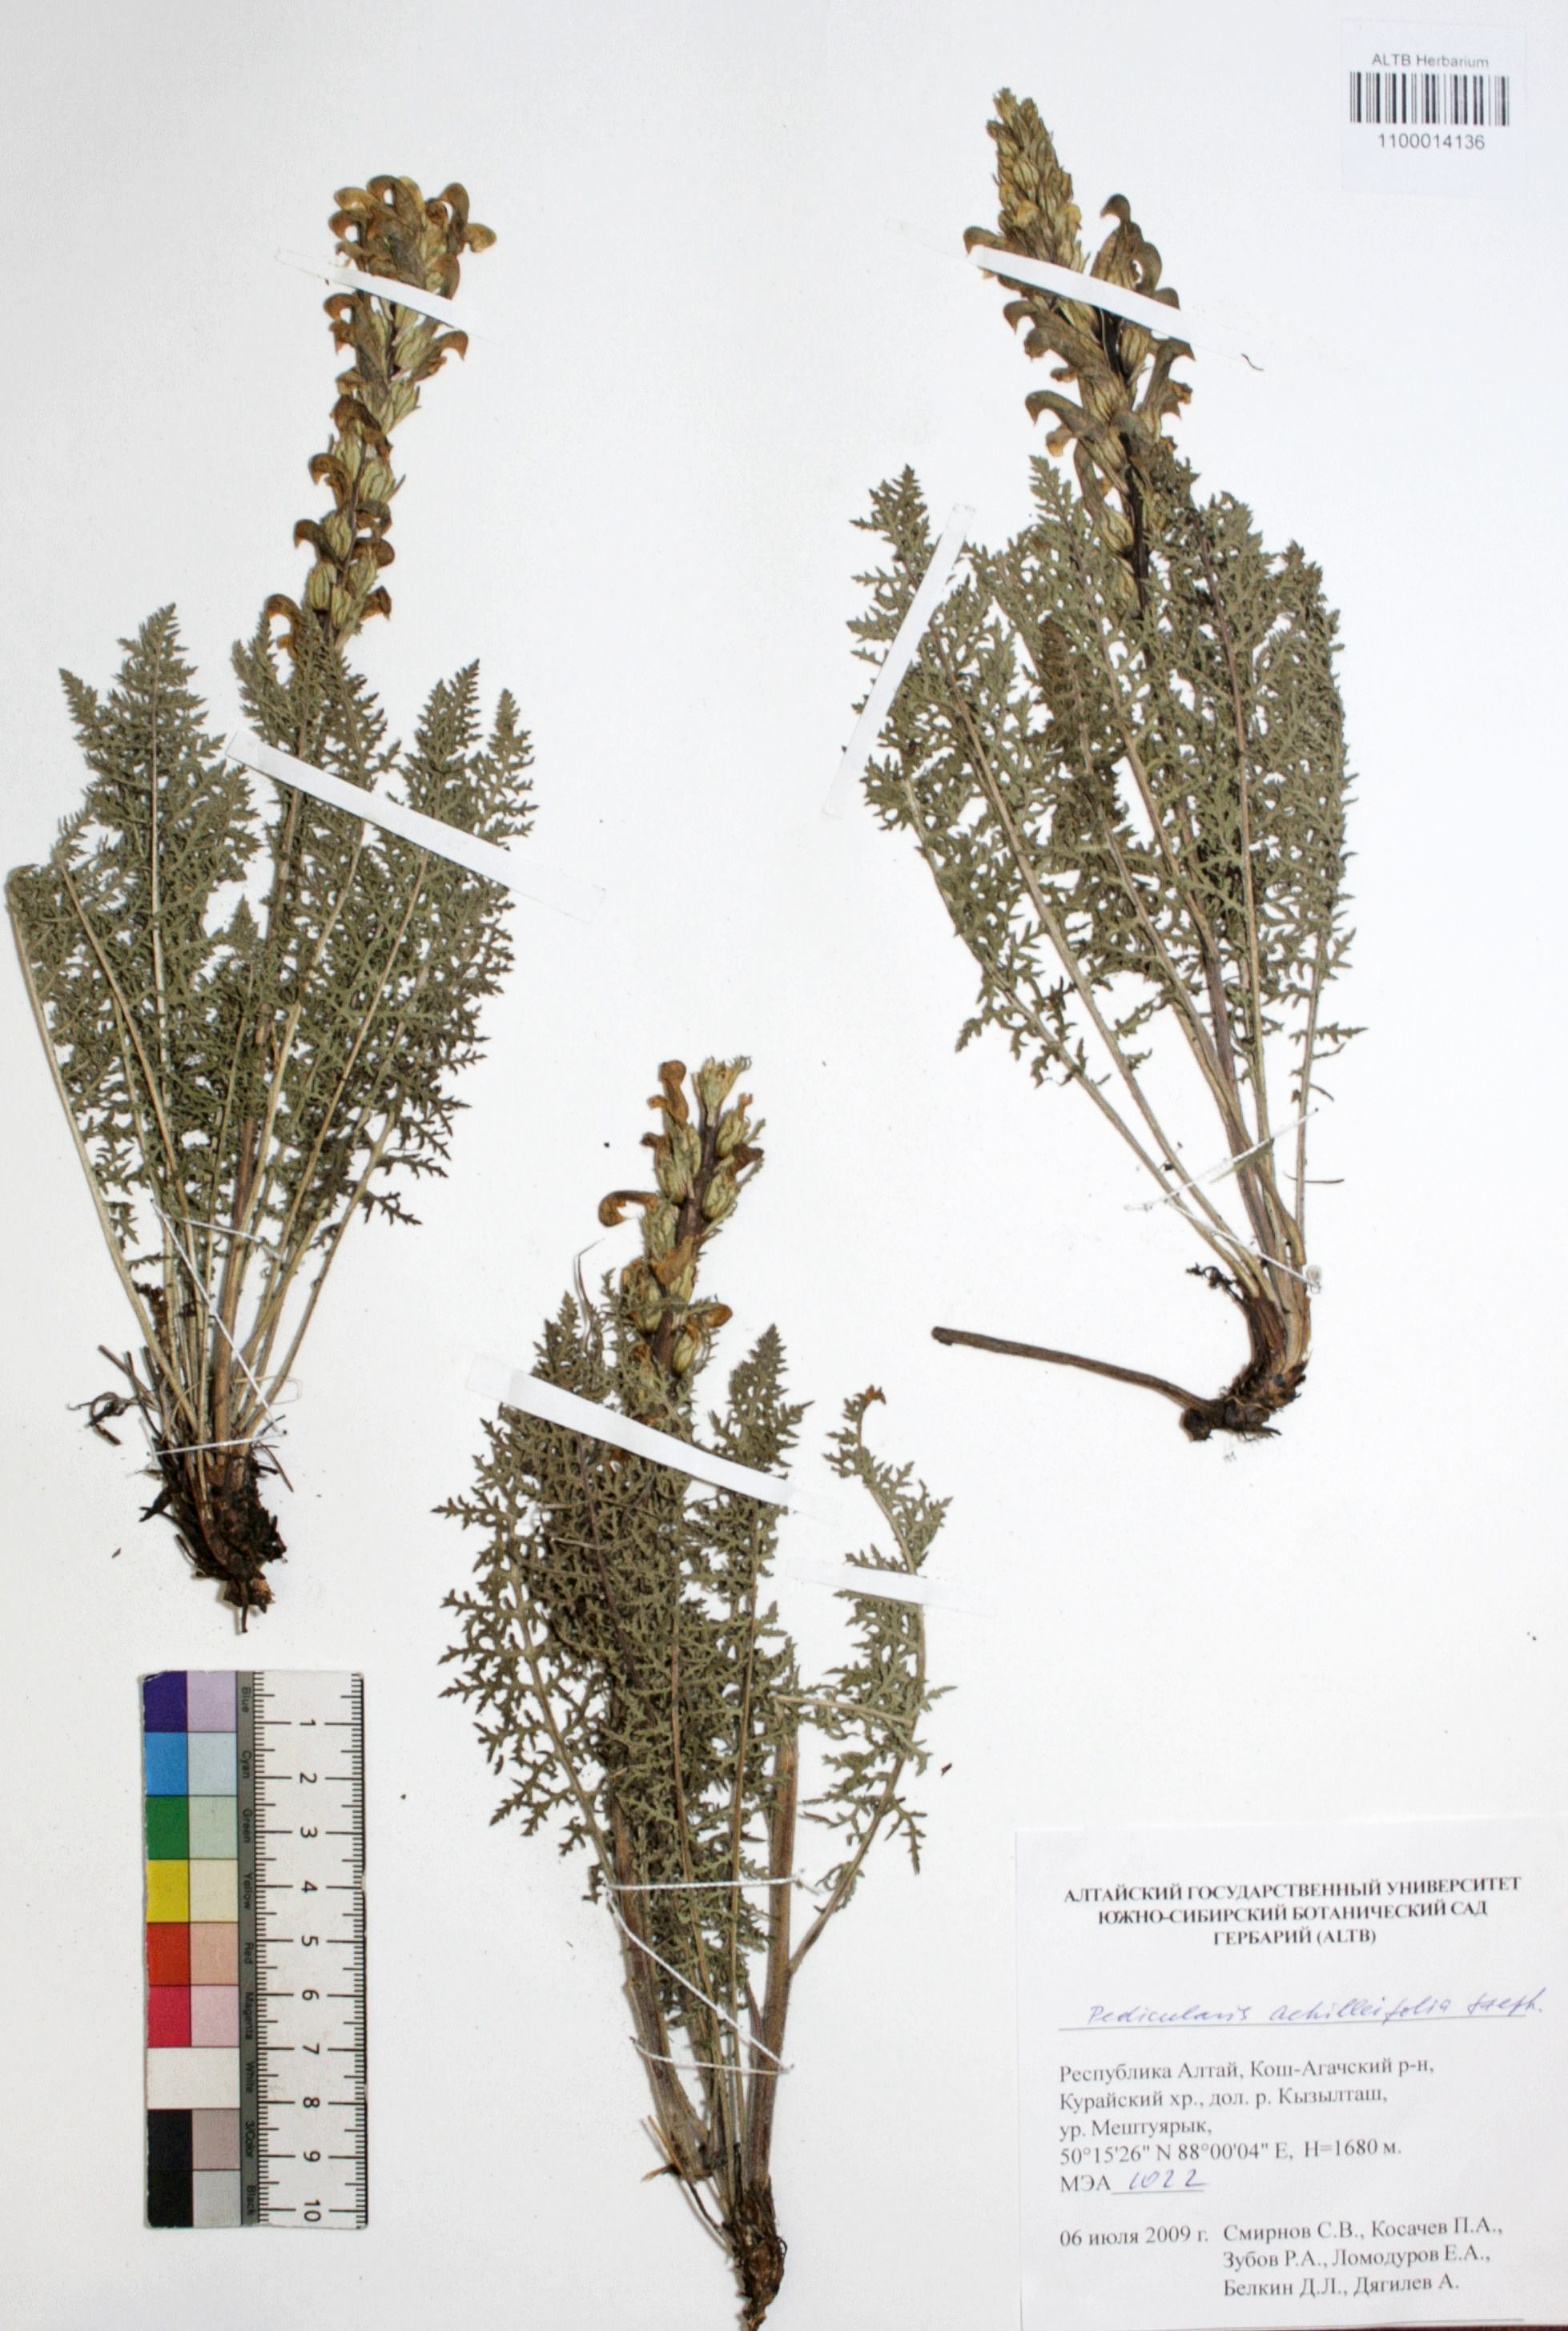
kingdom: Plantae
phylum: Tracheophyta
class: Magnoliopsida
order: Lamiales
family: Orobanchaceae
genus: Pedicularis
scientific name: Pedicularis achilleifolia
